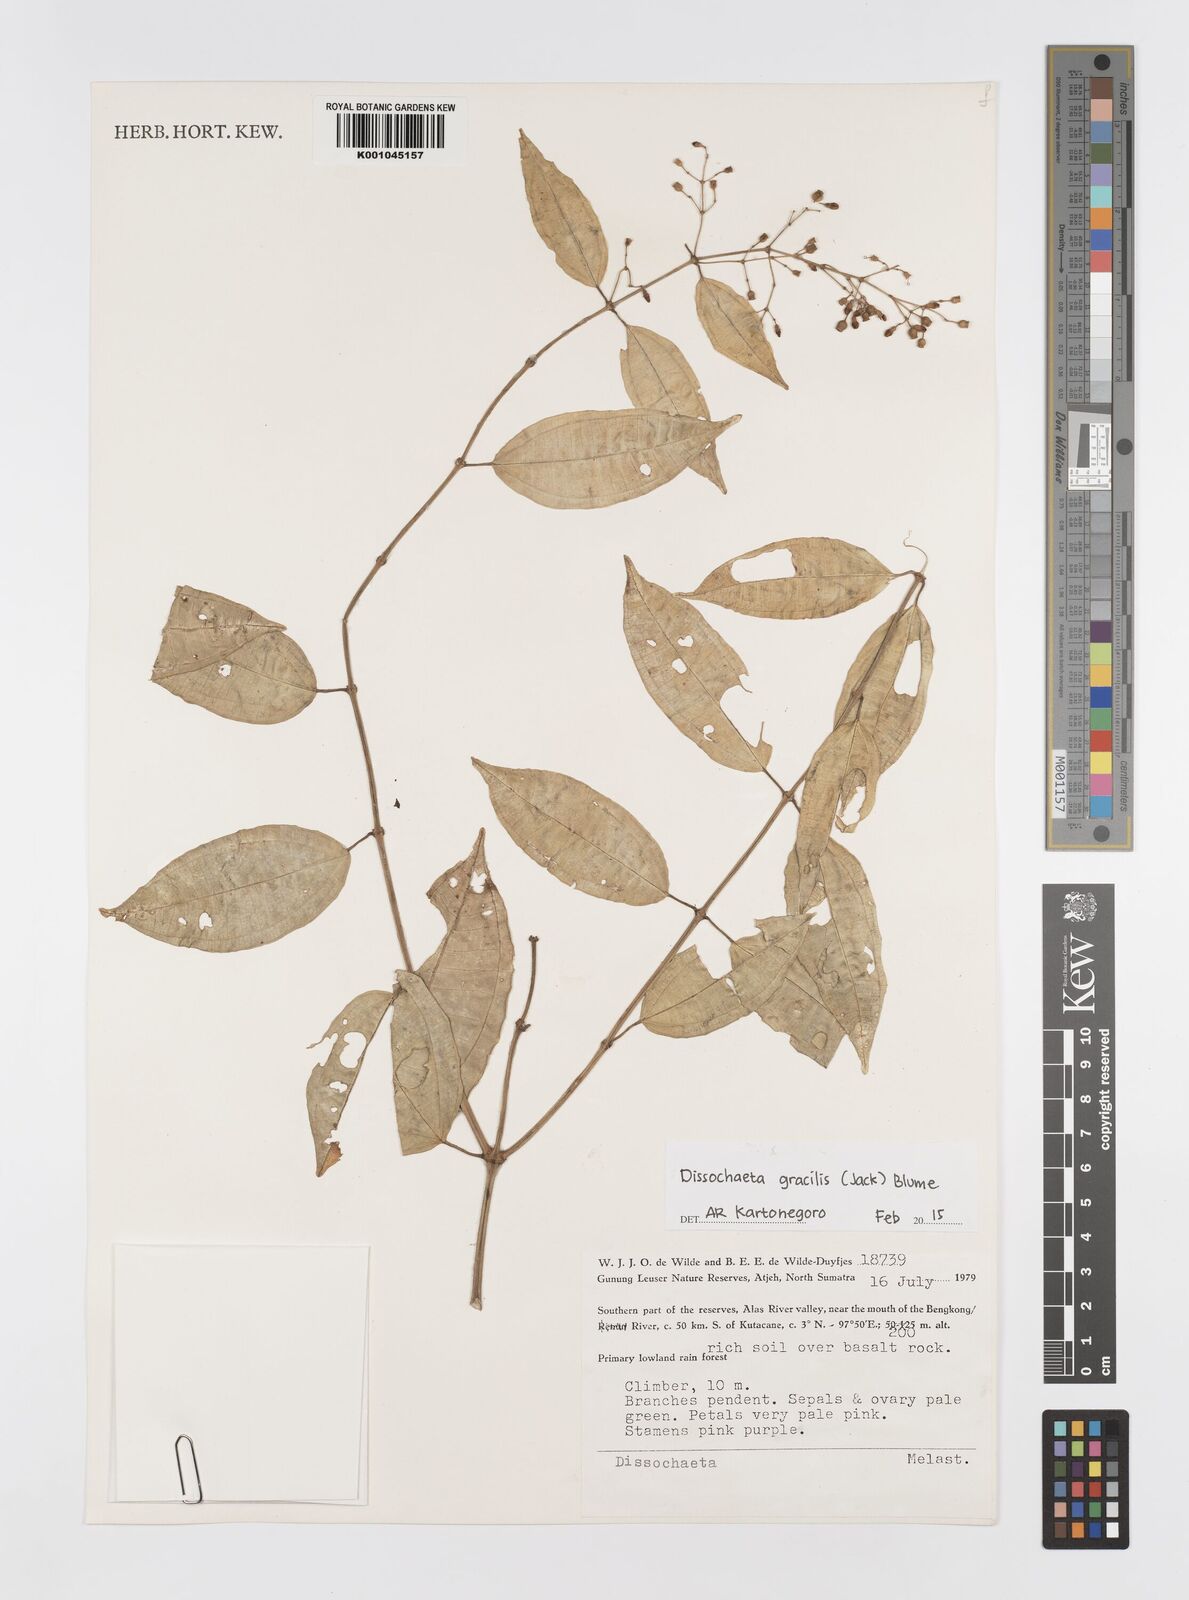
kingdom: Plantae
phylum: Tracheophyta
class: Magnoliopsida
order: Myrtales
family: Melastomataceae
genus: Dissochaeta
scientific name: Dissochaeta gracilis
